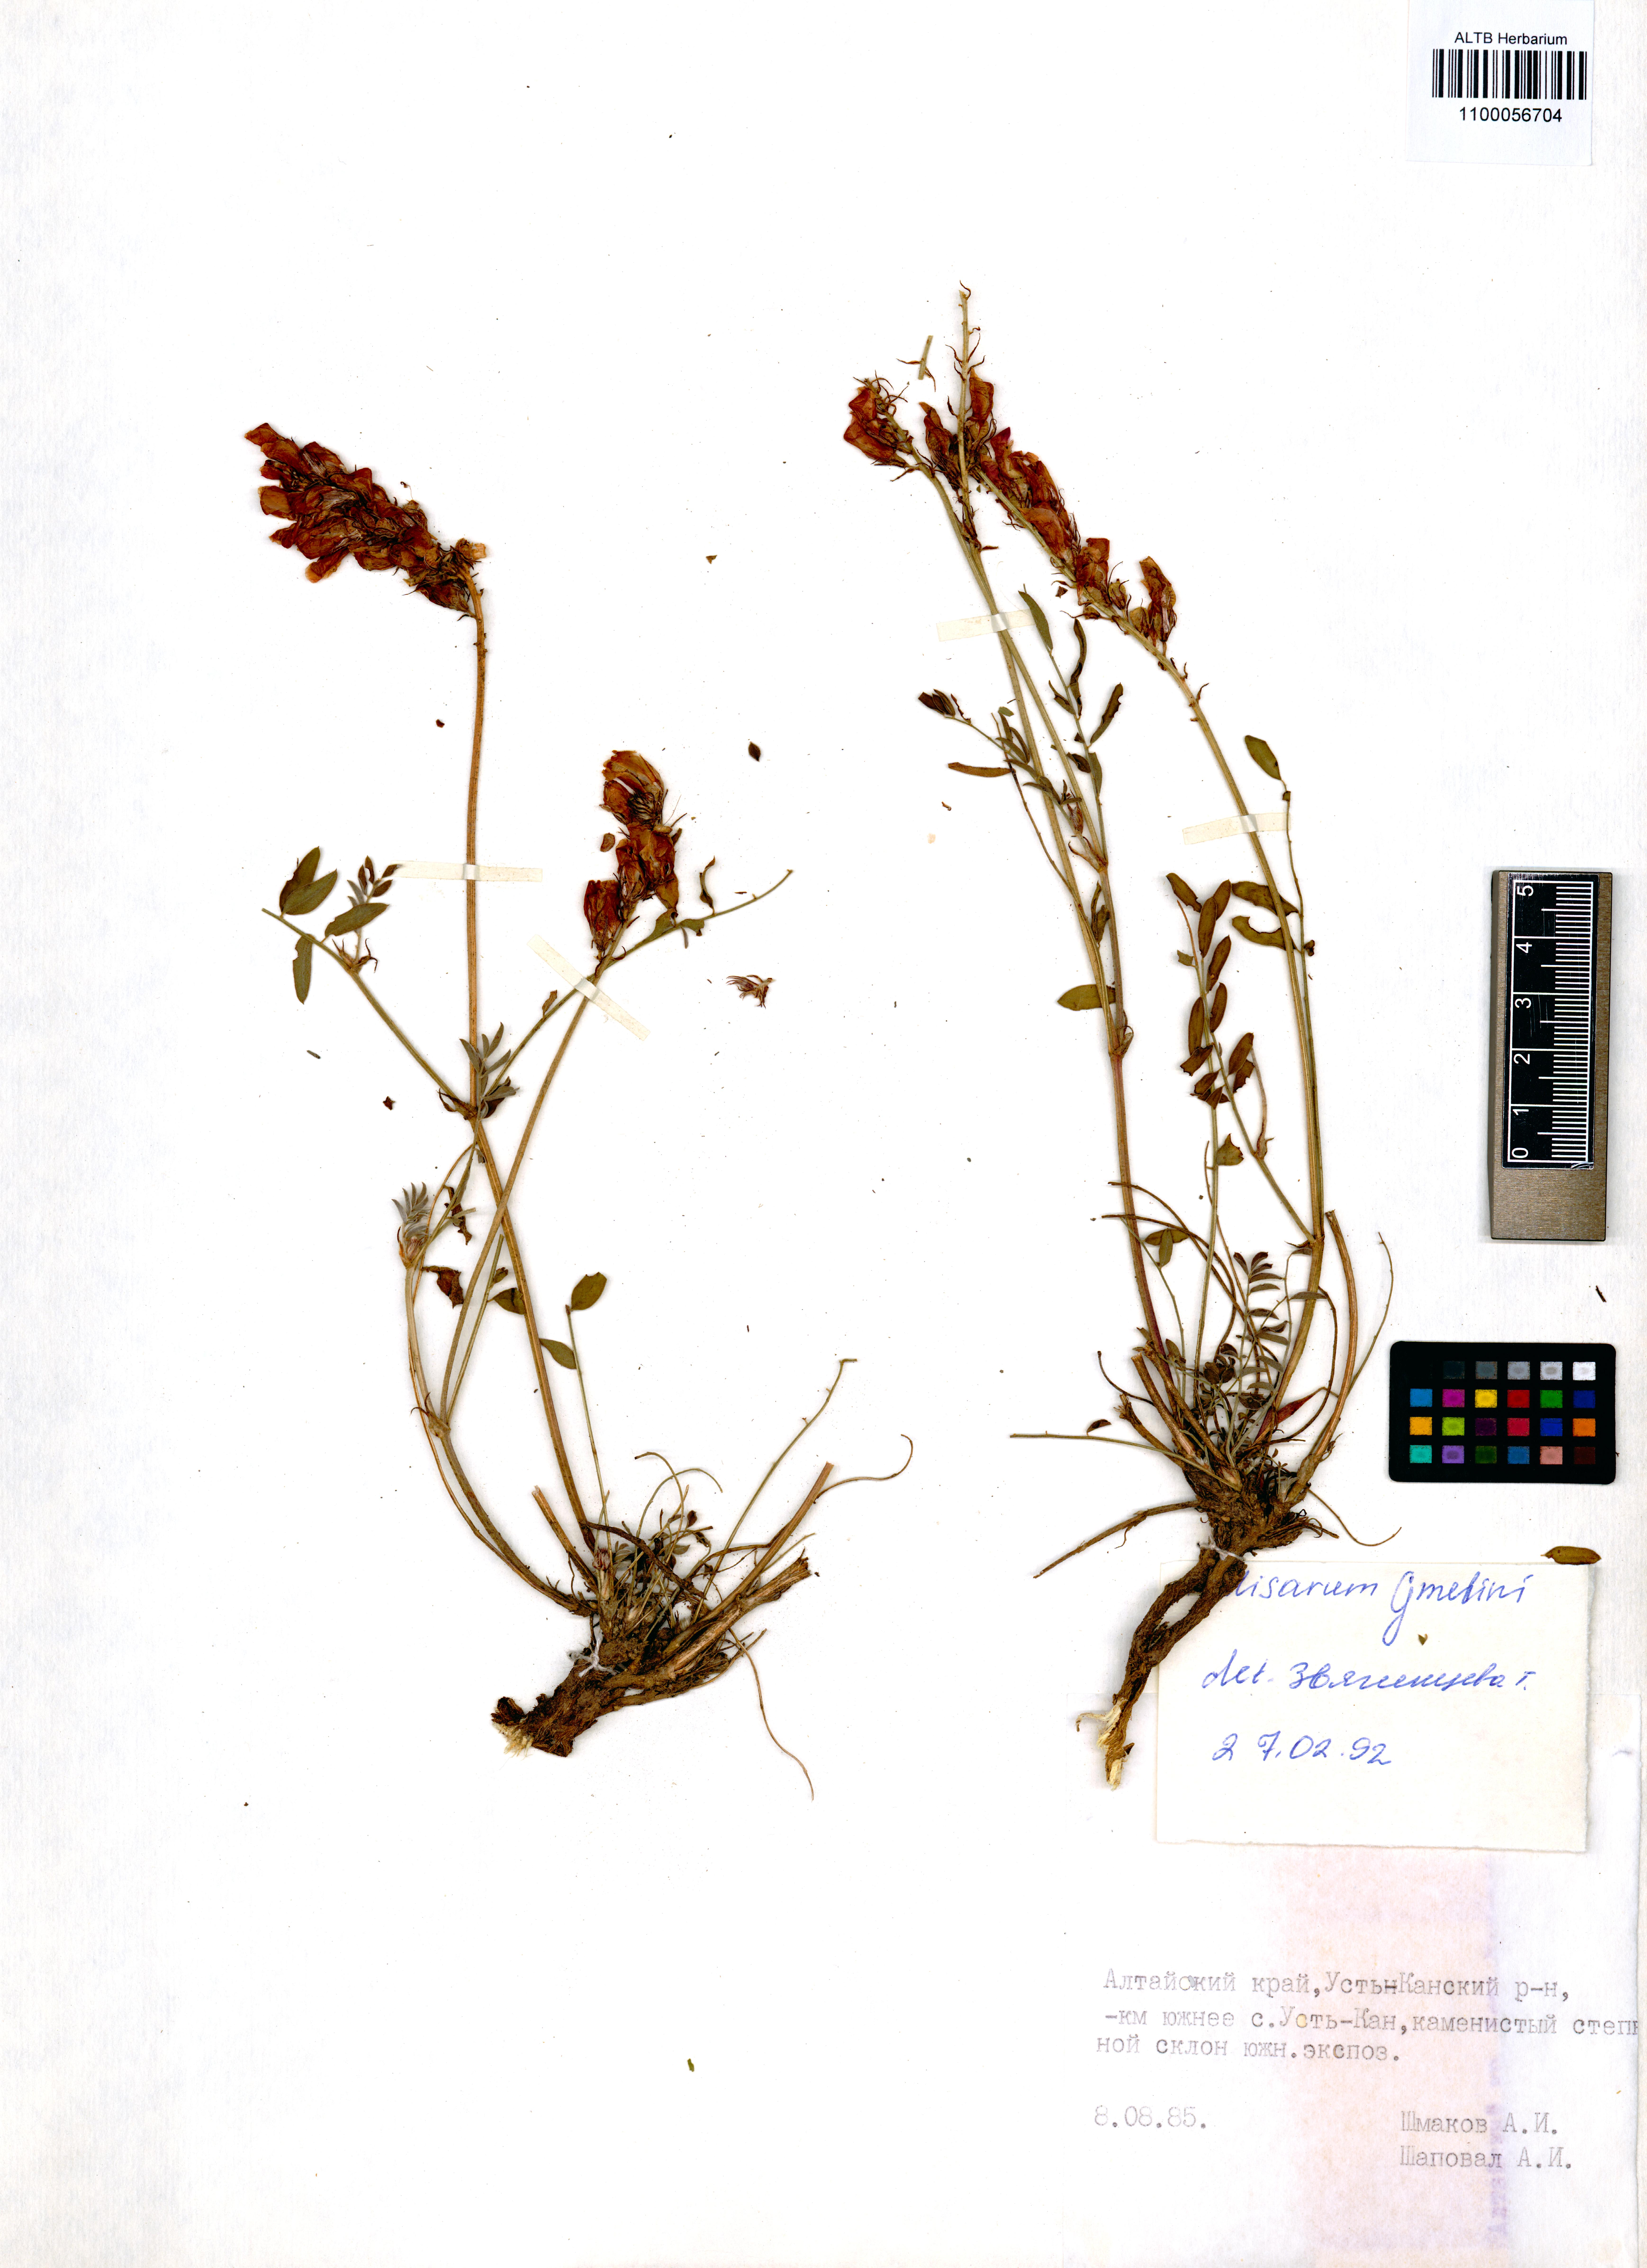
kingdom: Plantae
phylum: Tracheophyta
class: Magnoliopsida
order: Fabales
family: Fabaceae
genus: Hedysarum
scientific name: Hedysarum gmelinii
